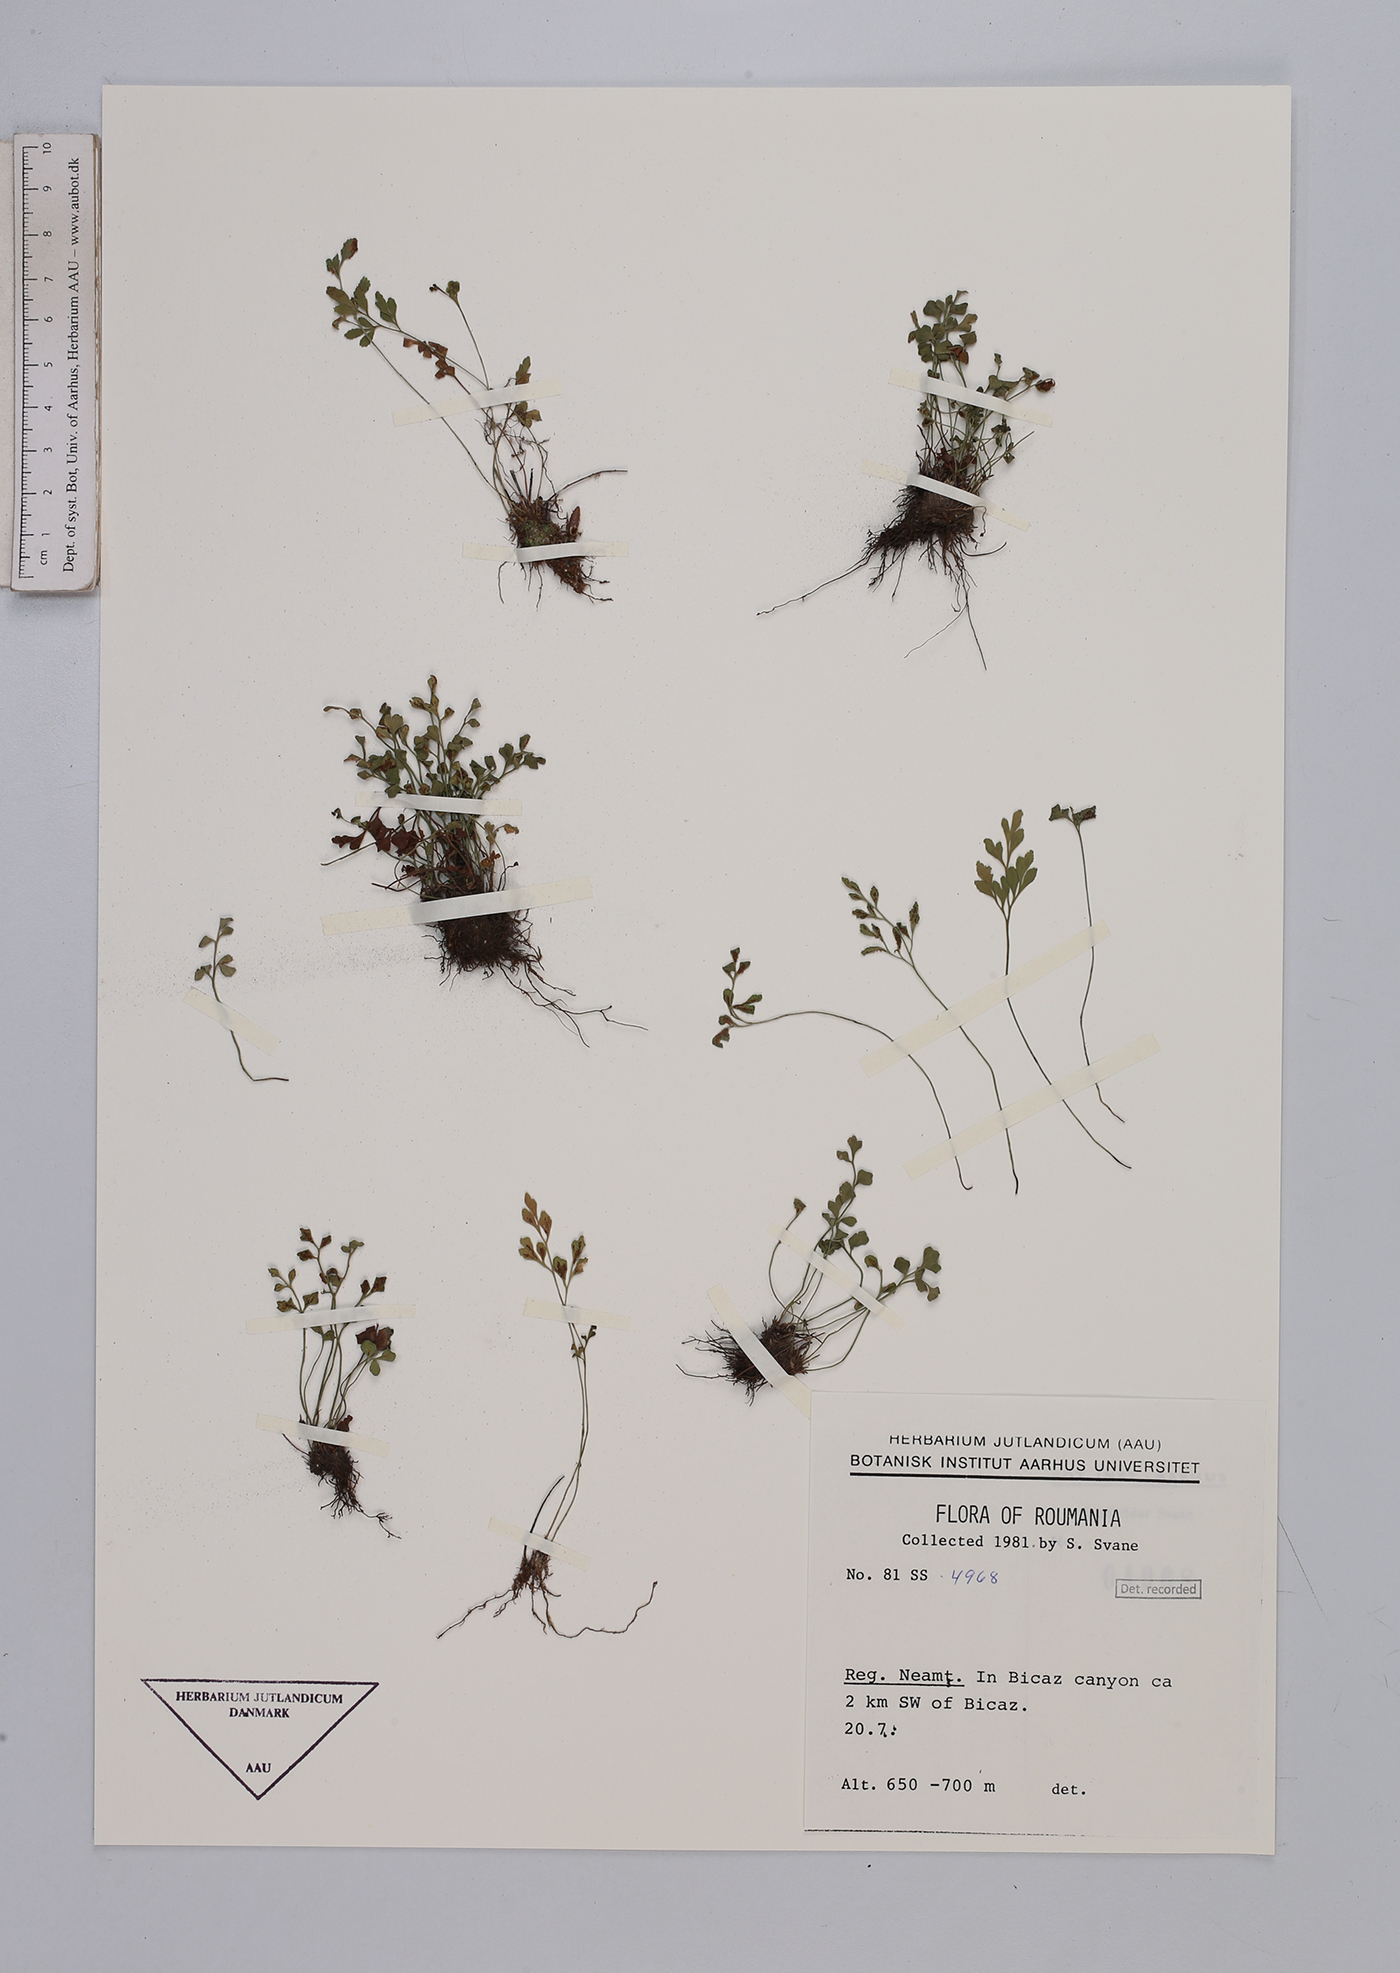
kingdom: Plantae
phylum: Tracheophyta
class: Polypodiopsida
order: Polypodiales
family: Aspleniaceae
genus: Asplenium
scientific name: Asplenium ruta-muraria
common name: Wall-rue
